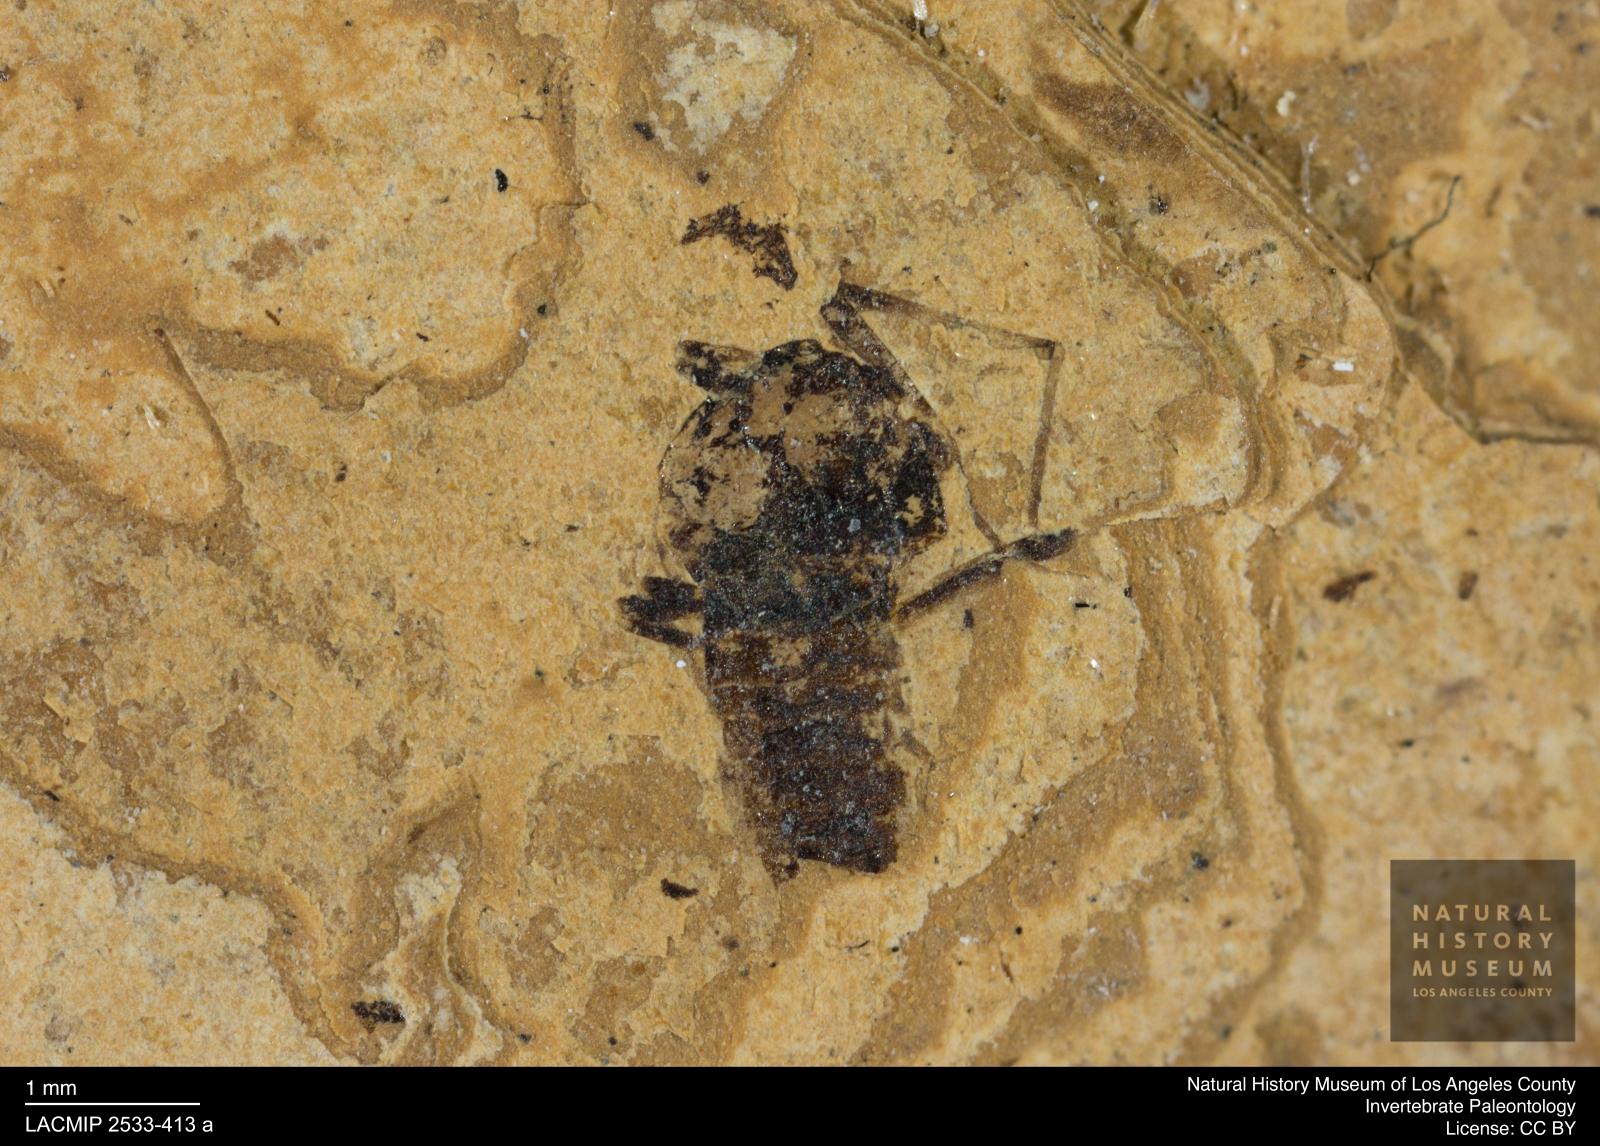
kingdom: Animalia
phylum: Arthropoda
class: Insecta
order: Diptera
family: Chironomidae
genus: Tanypus
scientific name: Tanypus fuscus
